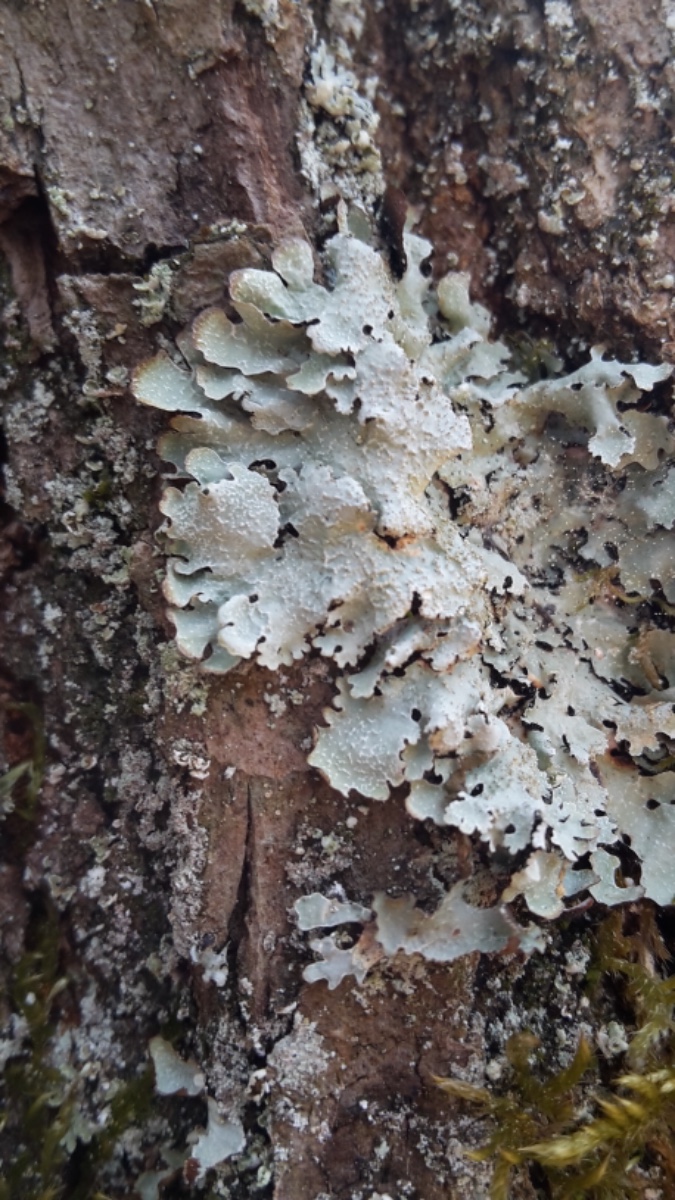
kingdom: Fungi
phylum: Ascomycota
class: Lecanoromycetes
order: Lecanorales
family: Parmeliaceae
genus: Parmelia
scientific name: Parmelia sulcata
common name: rynket skållav
